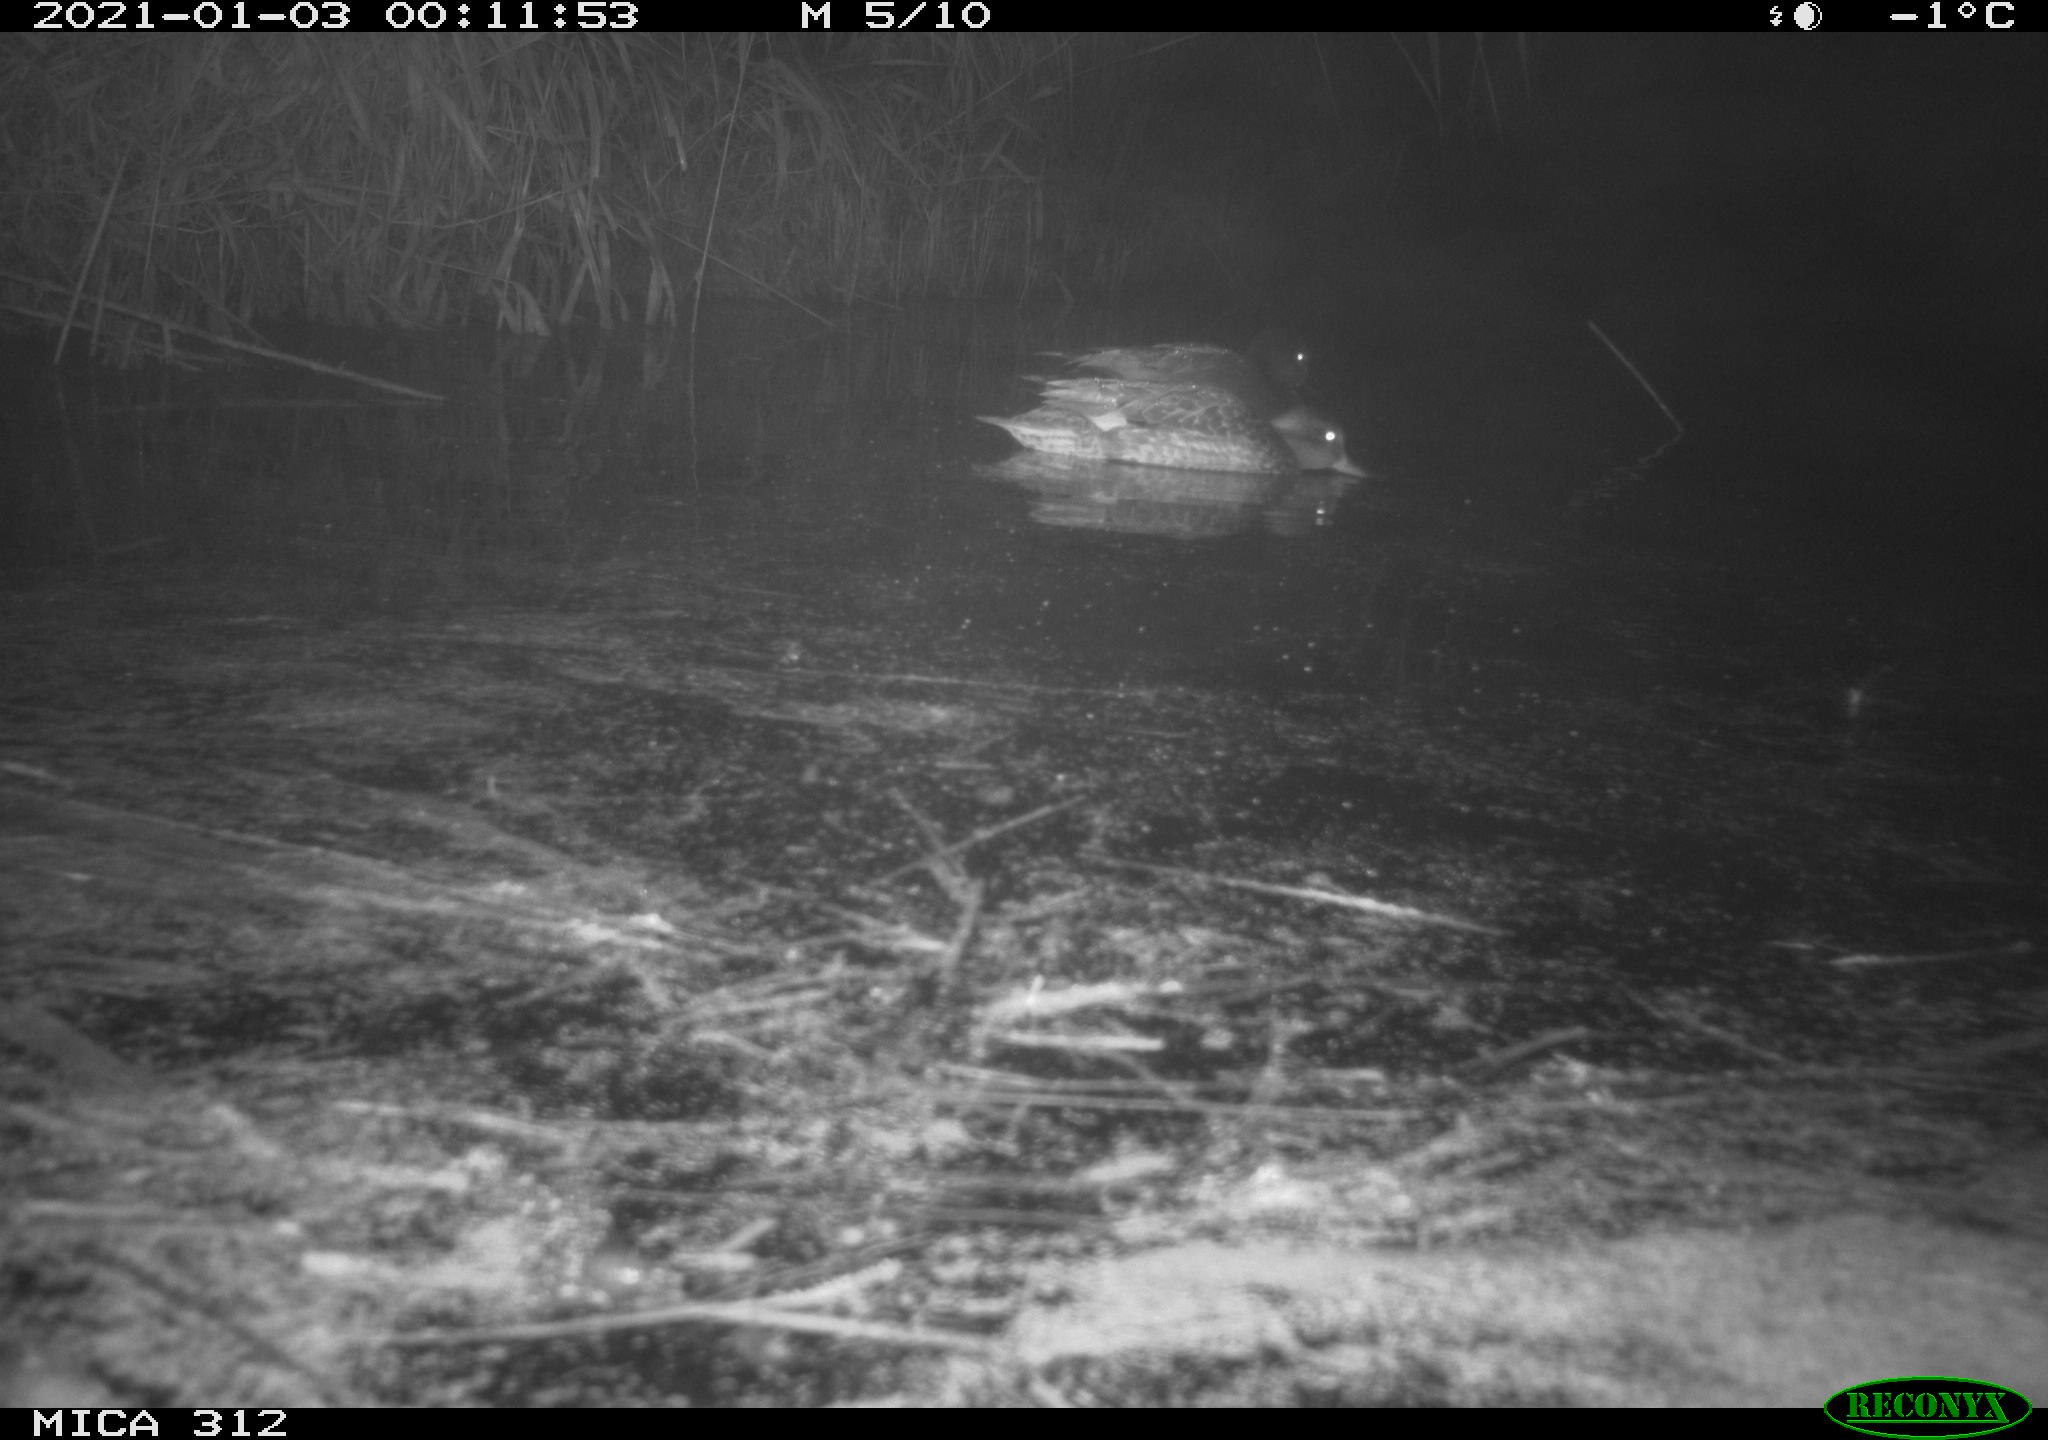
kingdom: Animalia
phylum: Chordata
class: Aves
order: Anseriformes
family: Anatidae
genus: Mareca
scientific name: Mareca strepera
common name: Gadwall
